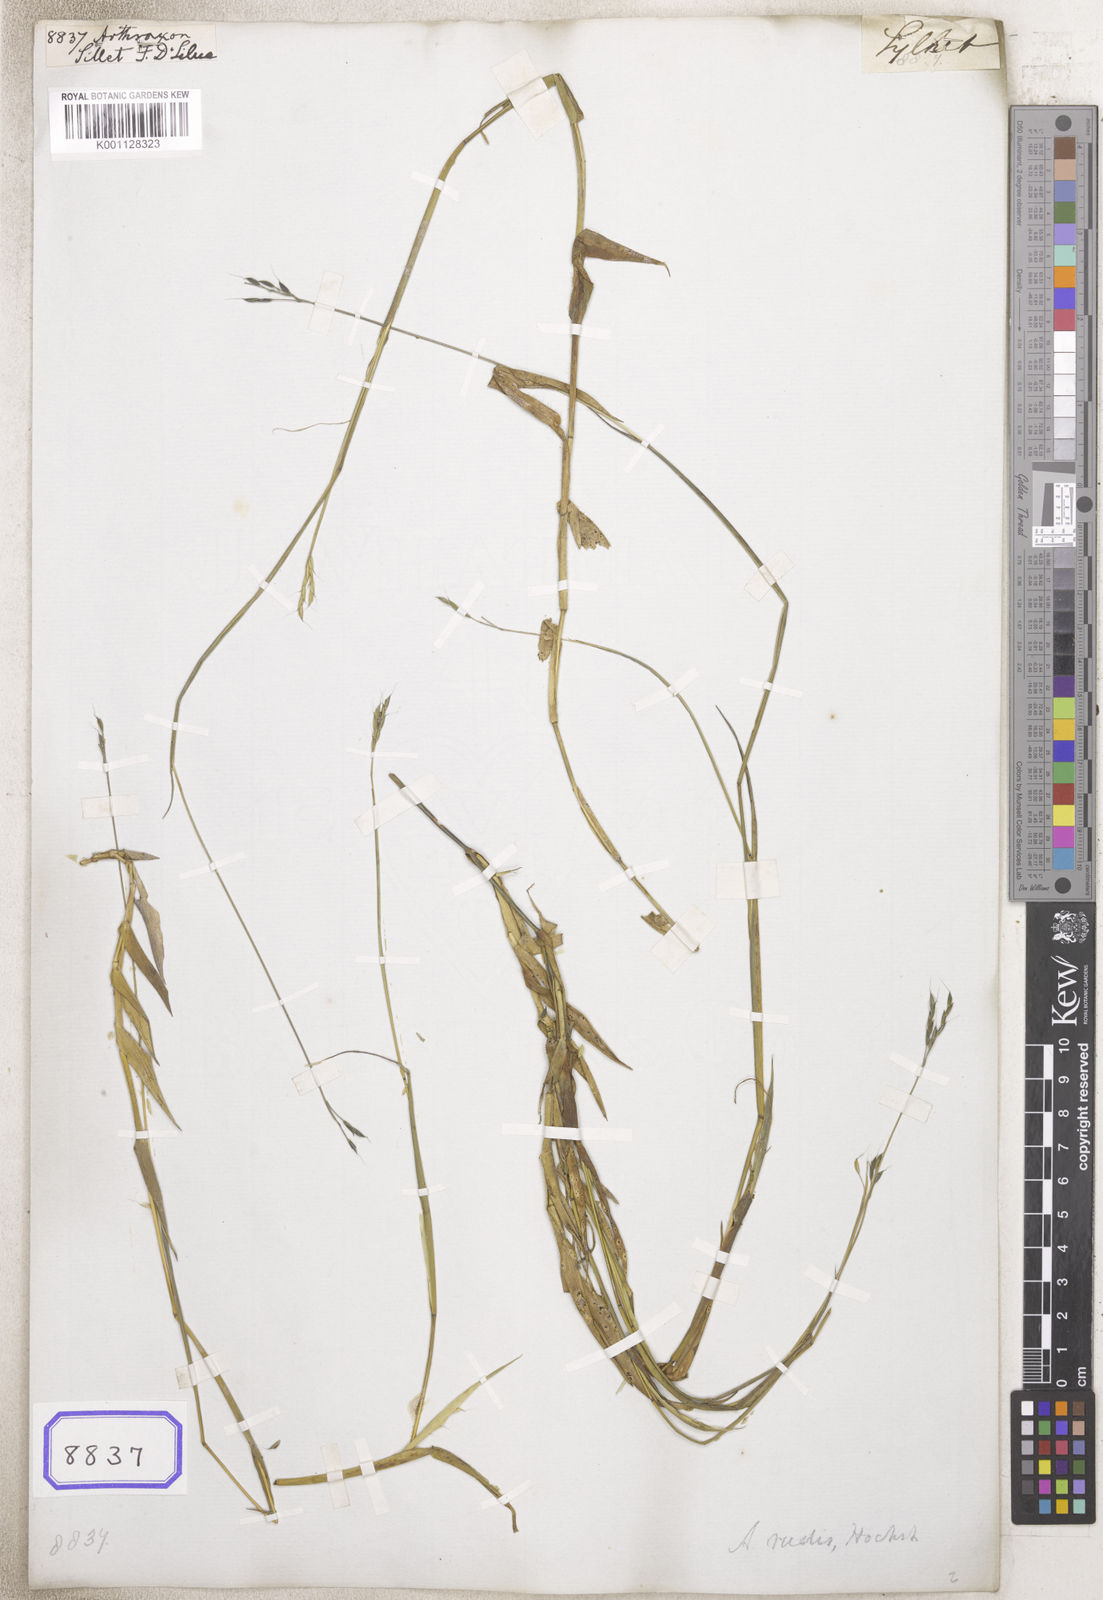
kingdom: Plantae
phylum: Tracheophyta
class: Liliopsida
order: Poales
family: Poaceae
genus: Arthraxon
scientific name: Arthraxon
